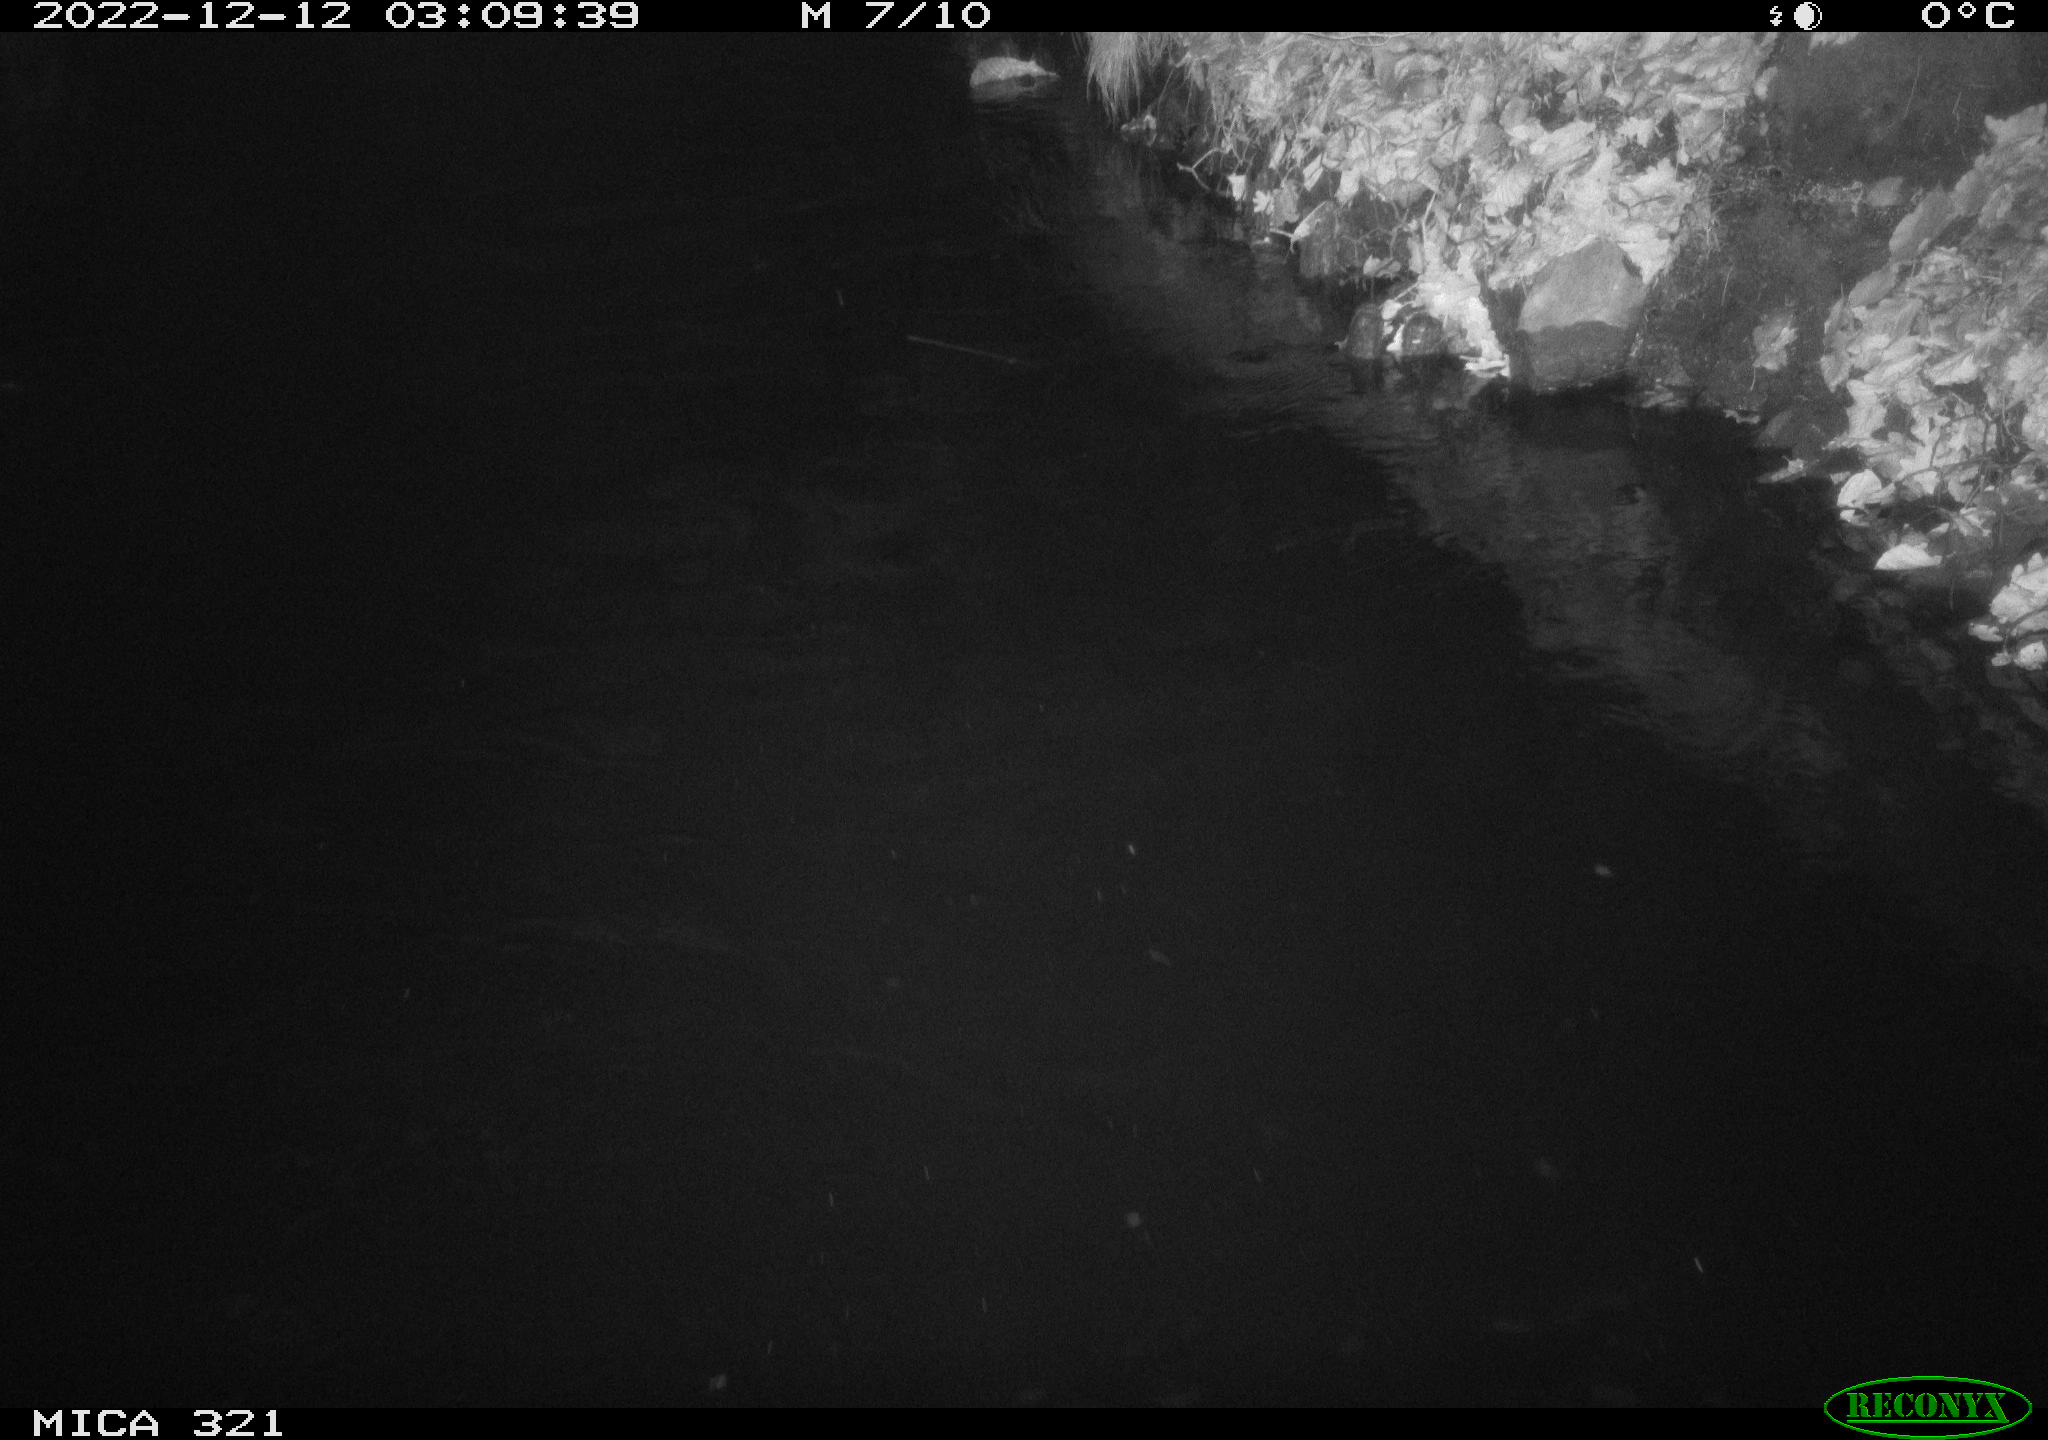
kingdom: Animalia
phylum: Chordata
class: Aves
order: Anseriformes
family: Anatidae
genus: Anas
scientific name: Anas
